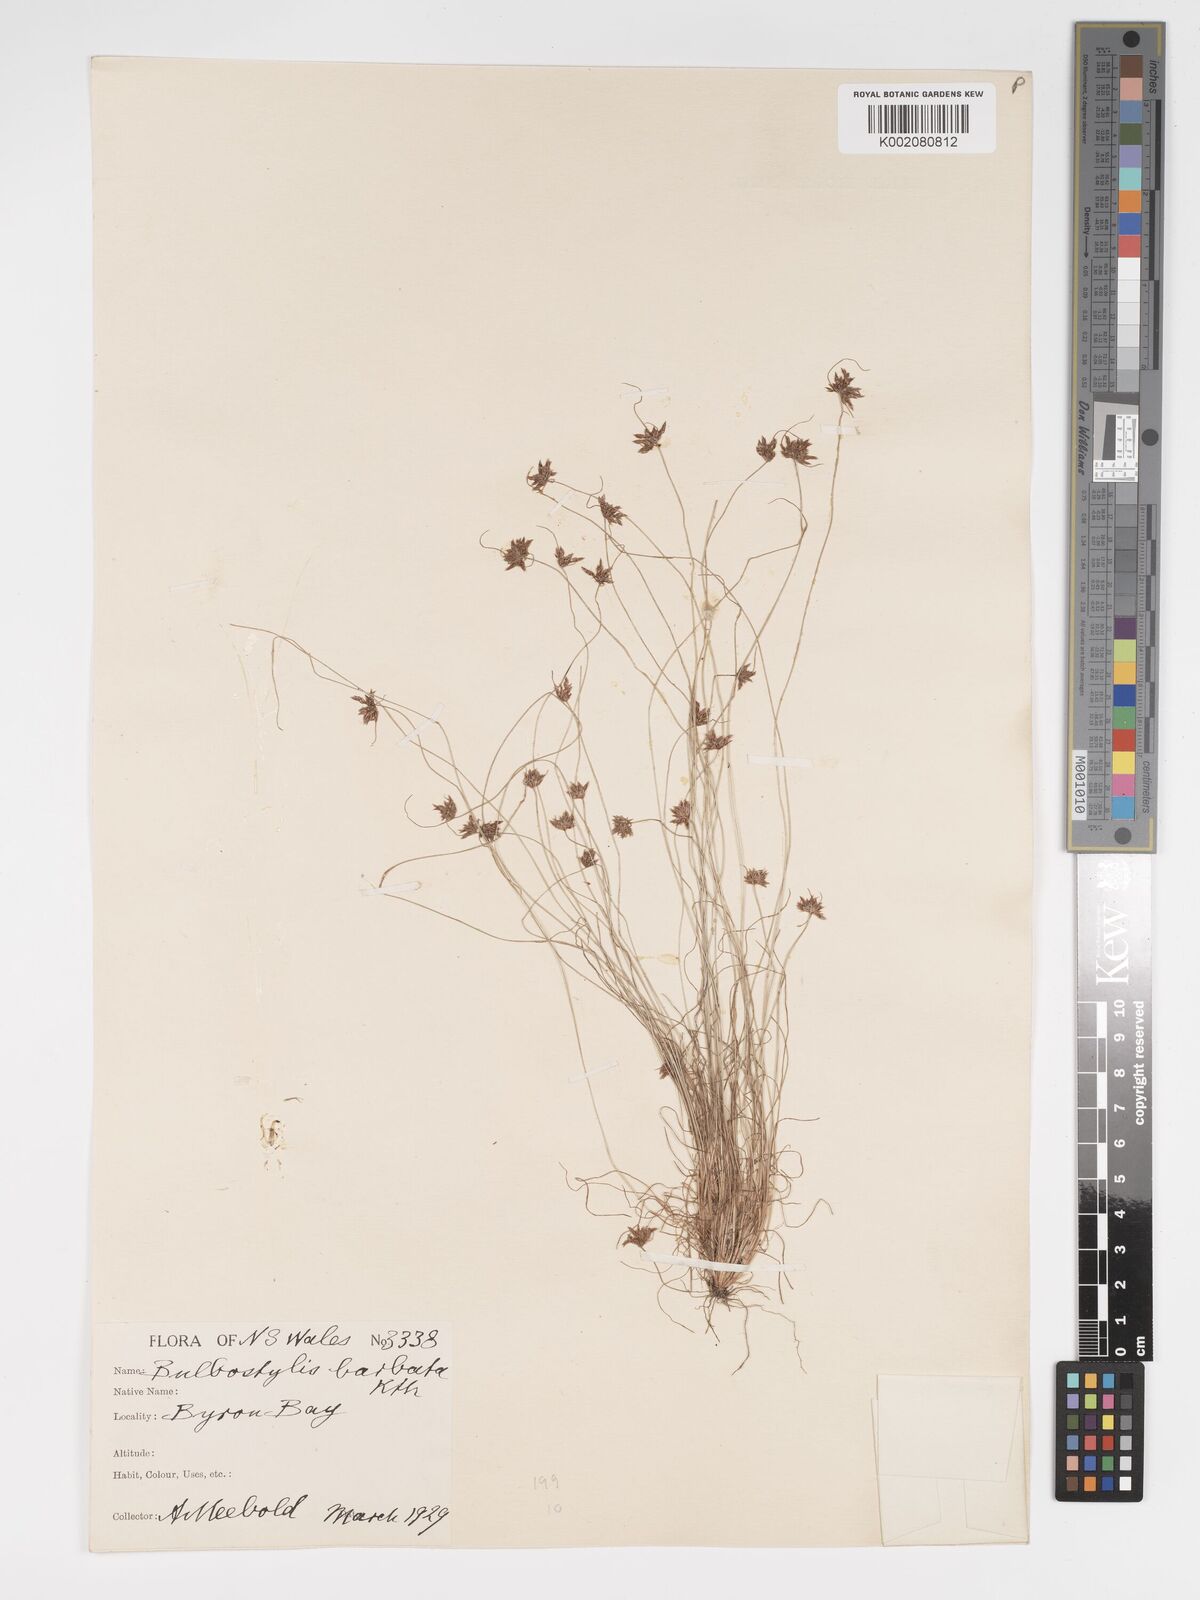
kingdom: Plantae
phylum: Tracheophyta
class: Liliopsida
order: Poales
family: Cyperaceae
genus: Bulbostylis
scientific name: Bulbostylis barbata
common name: Watergrass
